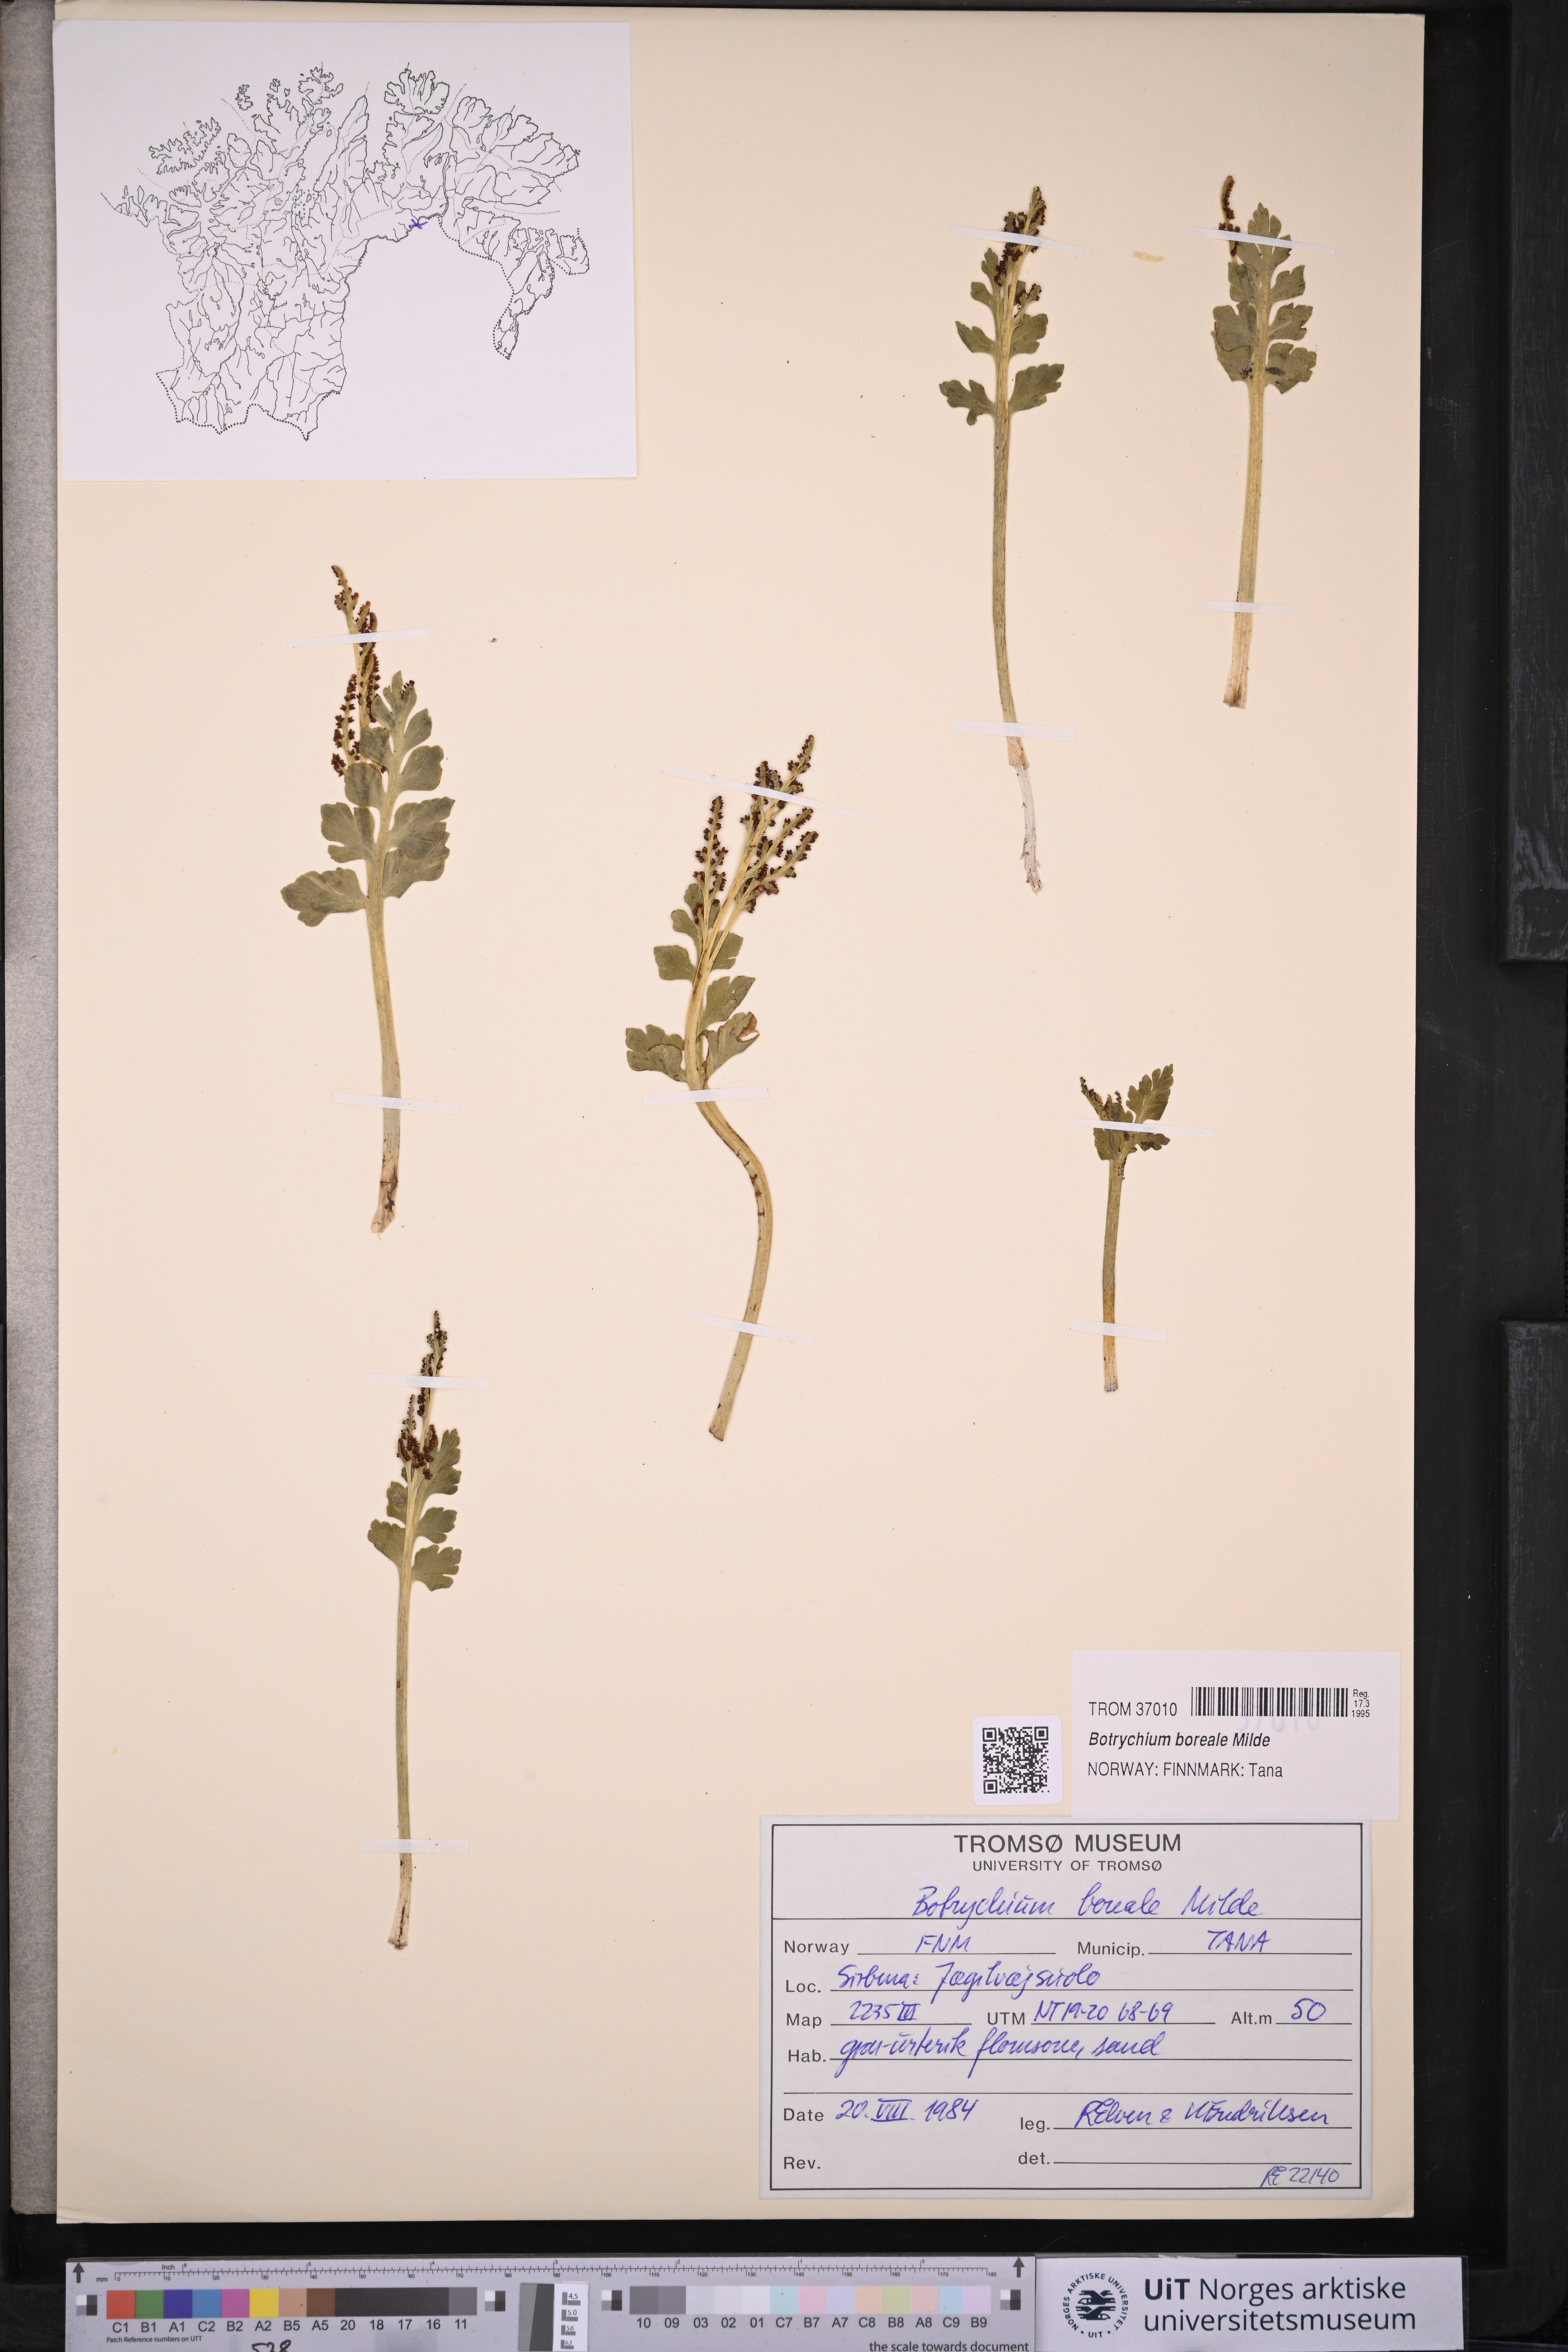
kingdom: Plantae
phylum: Tracheophyta
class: Polypodiopsida
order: Ophioglossales
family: Ophioglossaceae
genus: Botrychium
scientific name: Botrychium boreale
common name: Boreal moonwort
